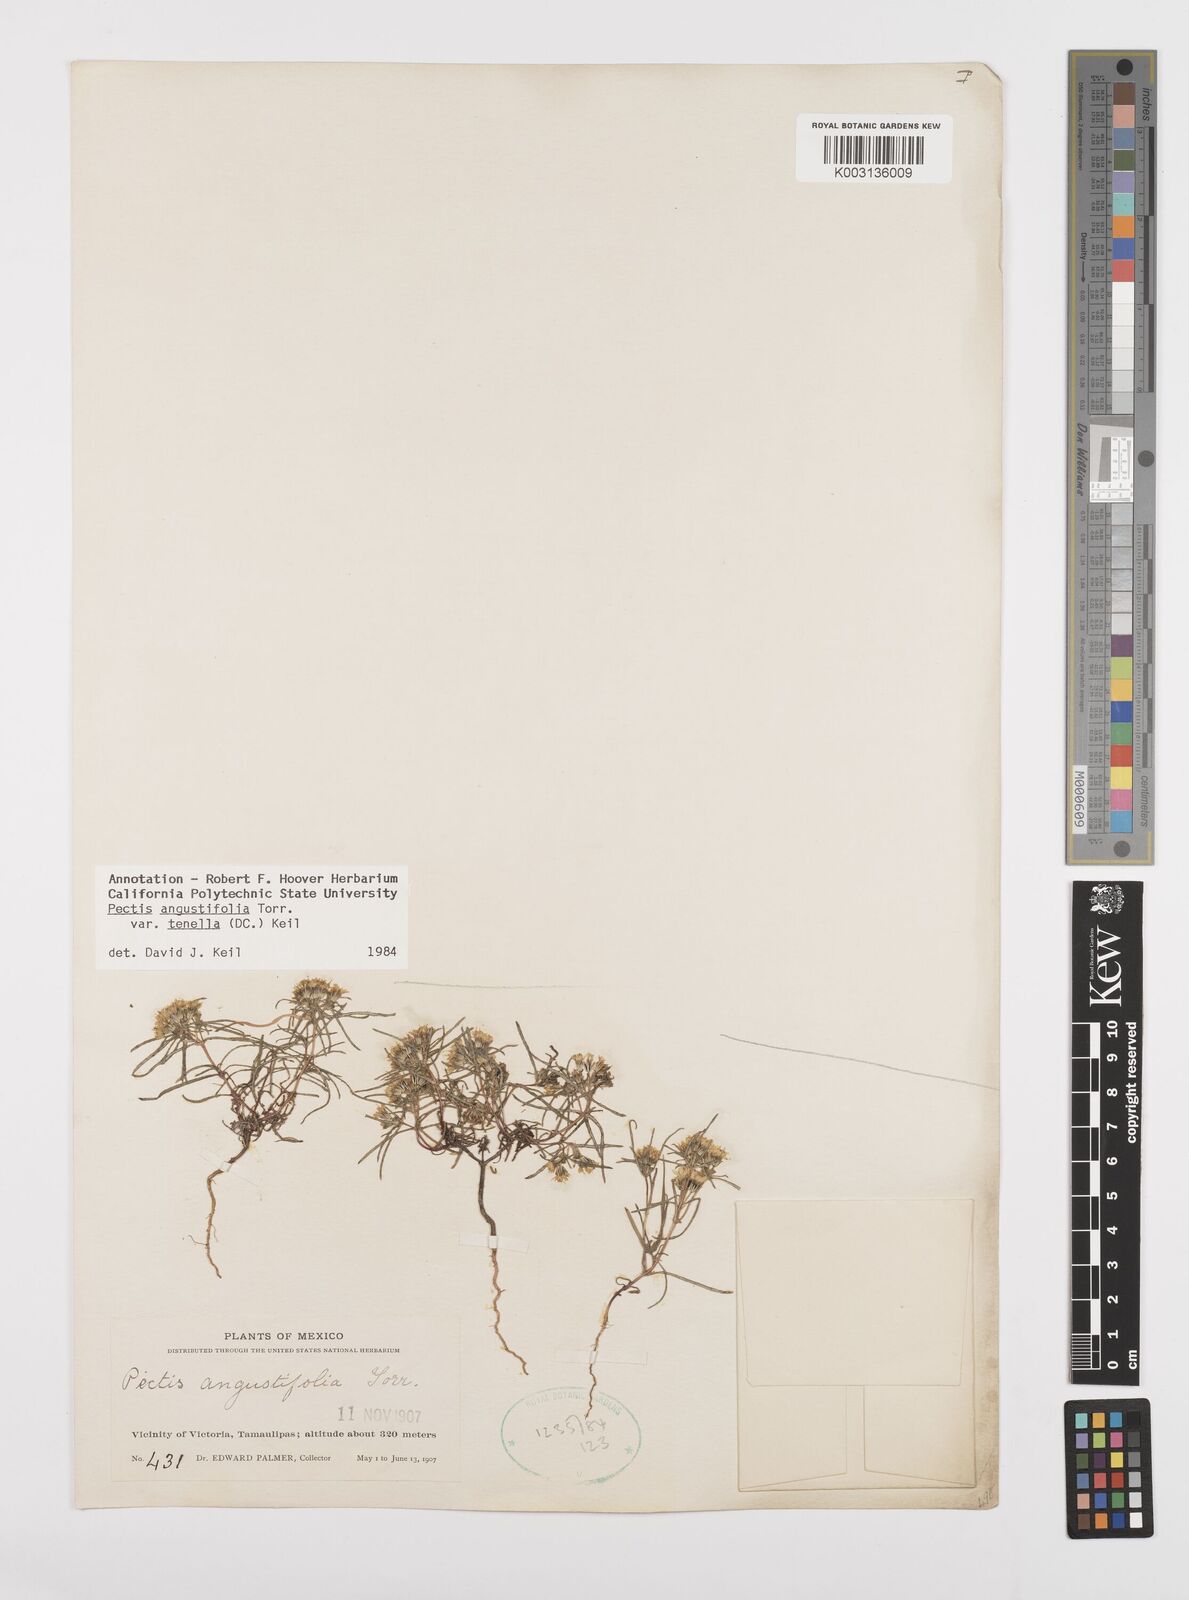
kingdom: Plantae
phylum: Tracheophyta
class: Magnoliopsida
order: Asterales
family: Asteraceae
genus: Pectis
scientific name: Pectis angustifolia
